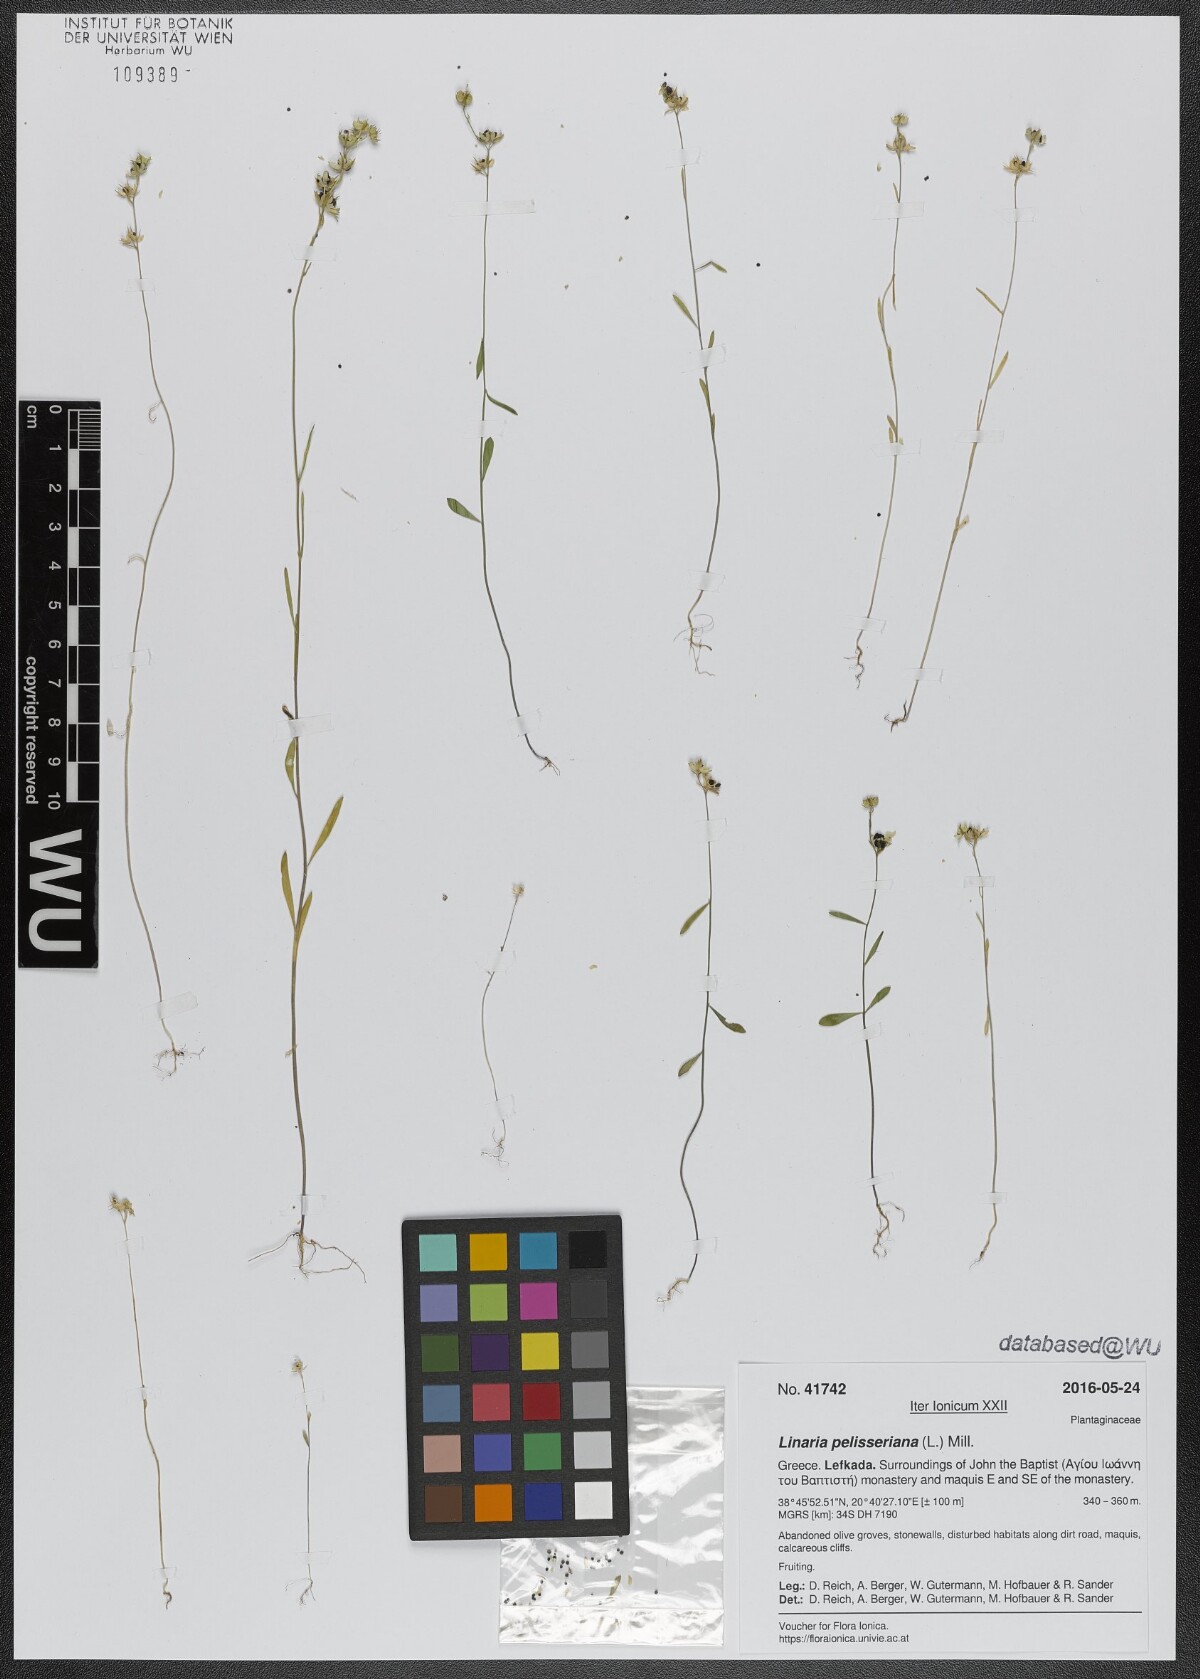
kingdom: Plantae
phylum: Tracheophyta
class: Magnoliopsida
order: Lamiales
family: Plantaginaceae
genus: Linaria
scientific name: Linaria pelisseriana
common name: Jersey toadflax
